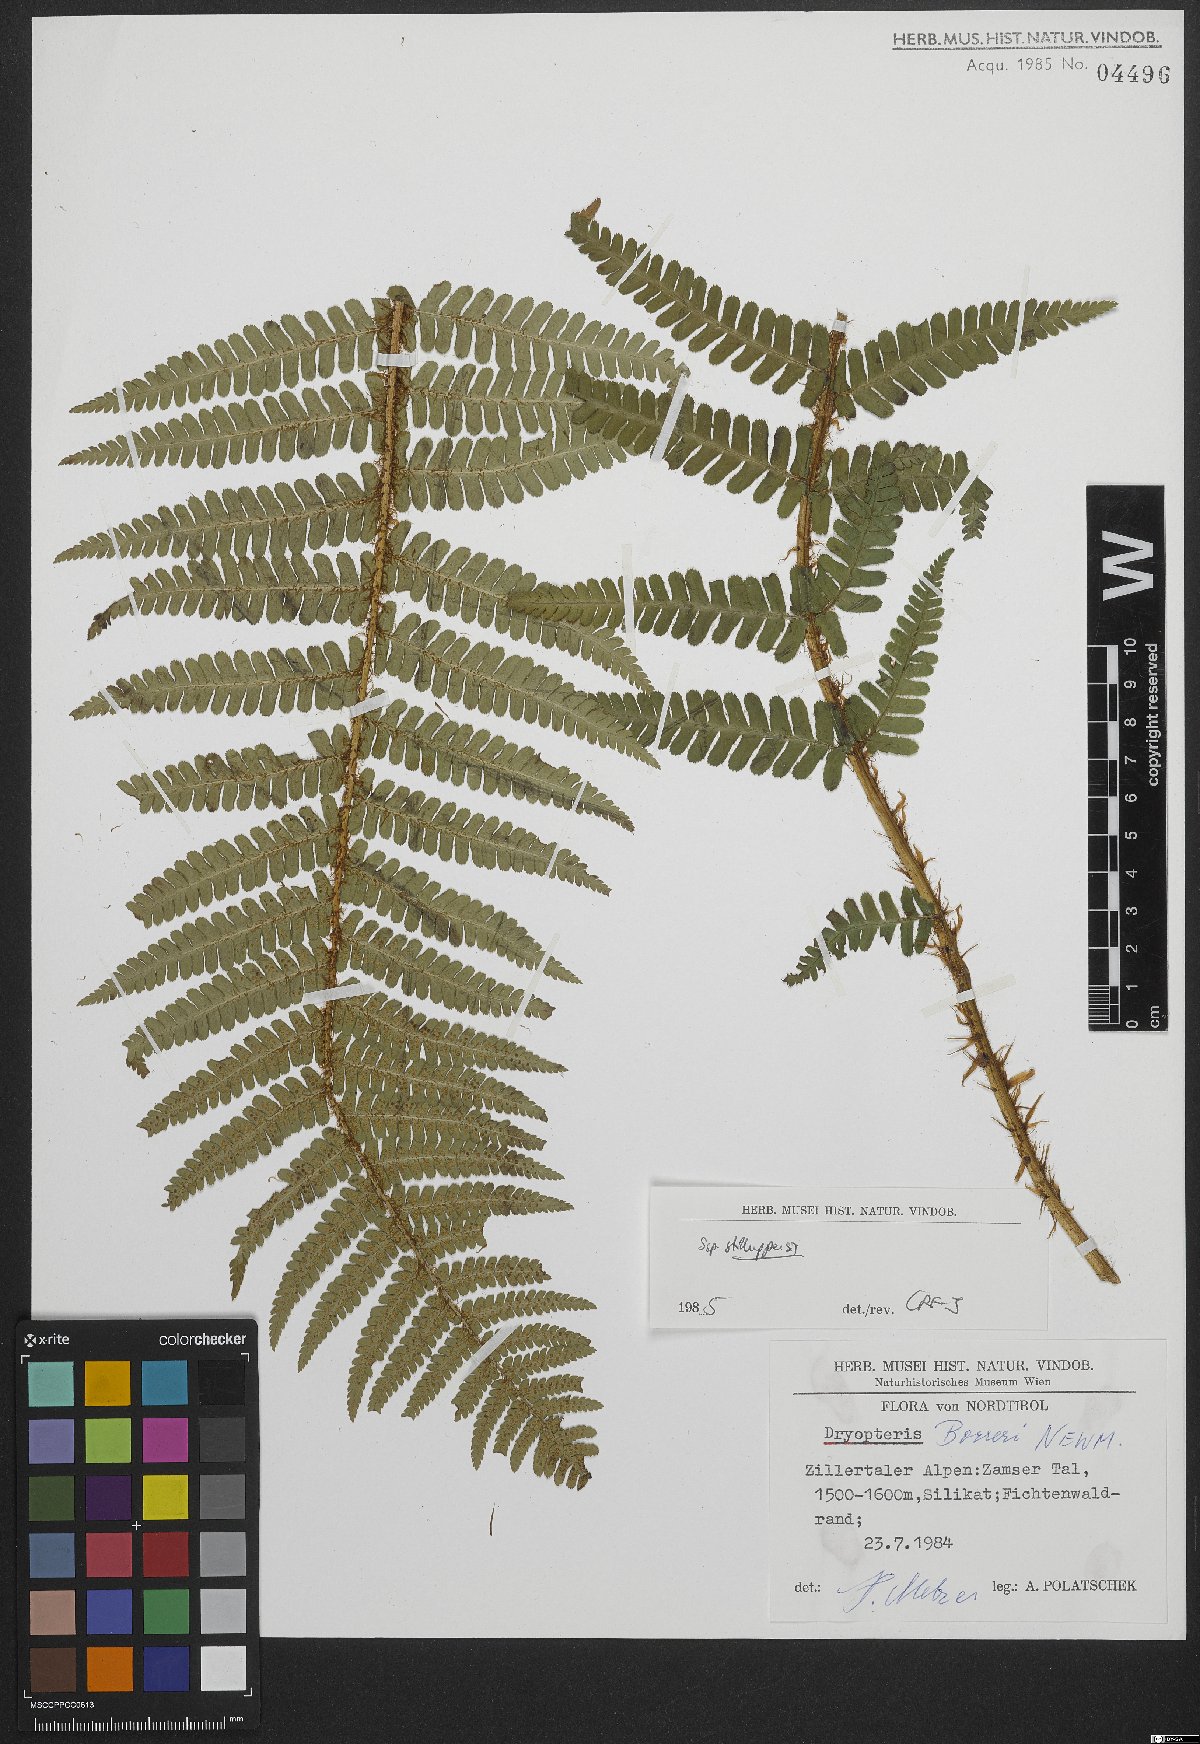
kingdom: Plantae
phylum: Tracheophyta
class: Polypodiopsida
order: Polypodiales
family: Dryopteridaceae
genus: Dryopteris
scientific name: Dryopteris borreri
